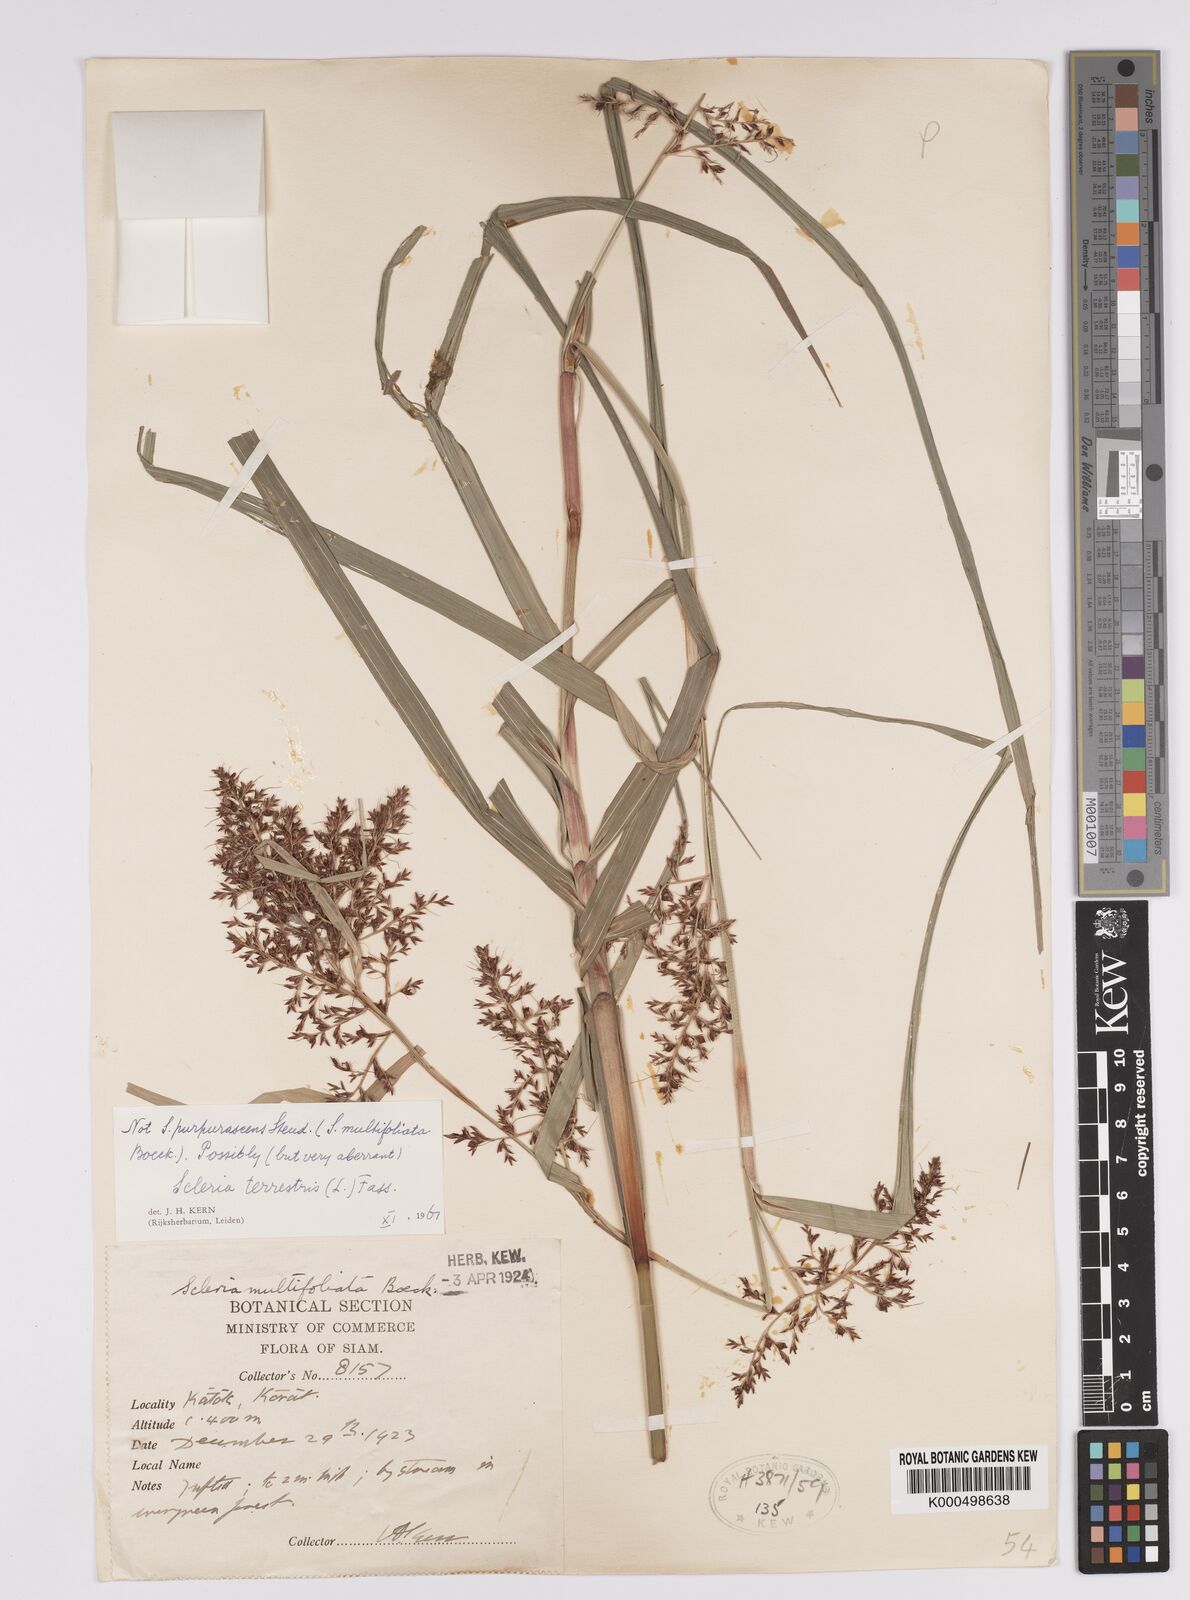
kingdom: Plantae
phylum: Tracheophyta
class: Liliopsida
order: Poales
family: Cyperaceae
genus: Scleria
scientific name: Scleria terrestris
